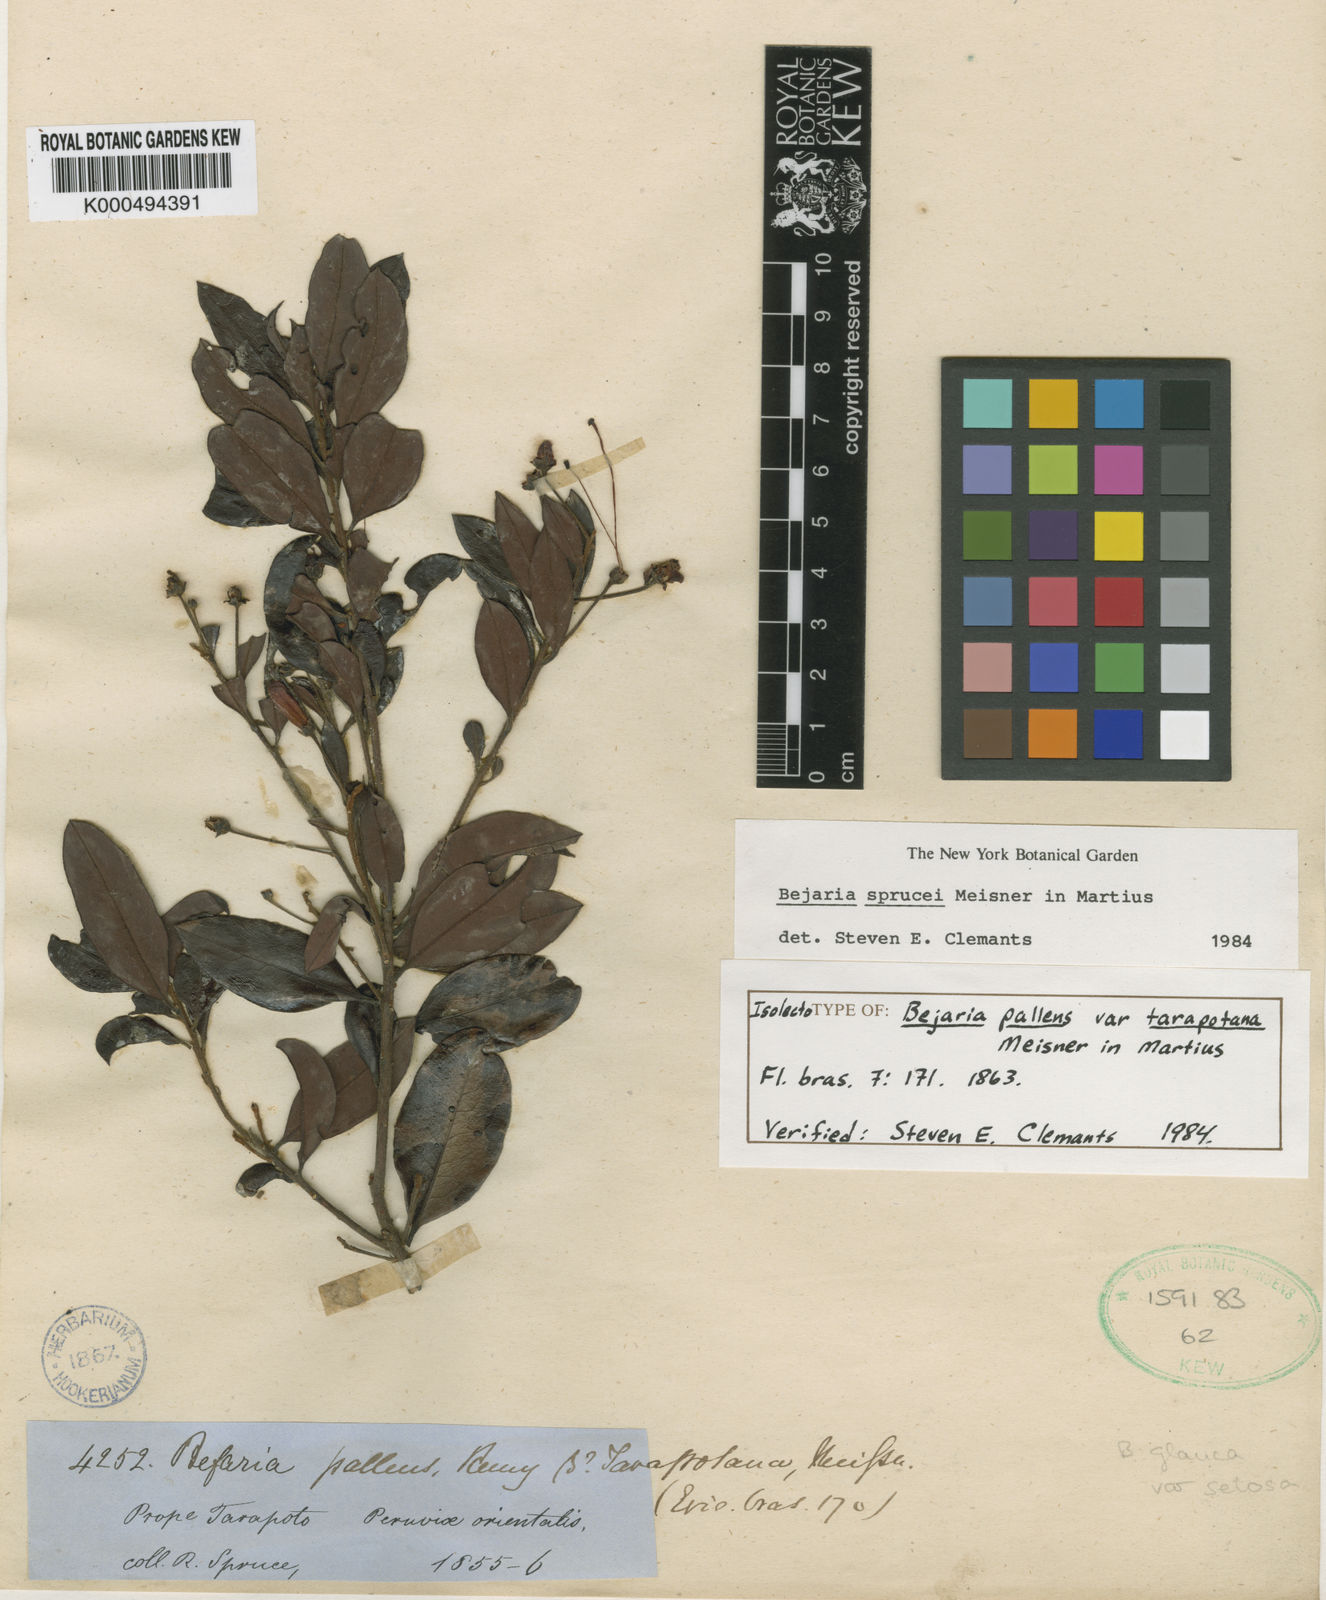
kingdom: Plantae
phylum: Tracheophyta
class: Magnoliopsida
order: Ericales
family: Ericaceae
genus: Bejaria
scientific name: Bejaria sprucei
